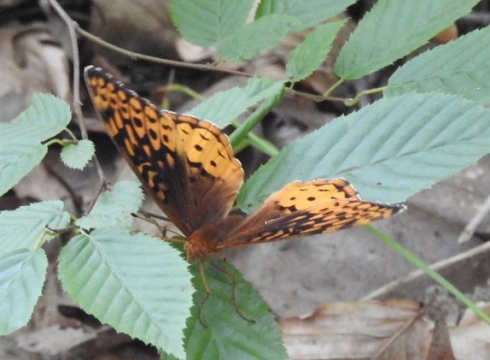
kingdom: Animalia
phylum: Arthropoda
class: Insecta
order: Lepidoptera
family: Nymphalidae
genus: Speyeria
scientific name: Speyeria cybele
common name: Great Spangled Fritillary
